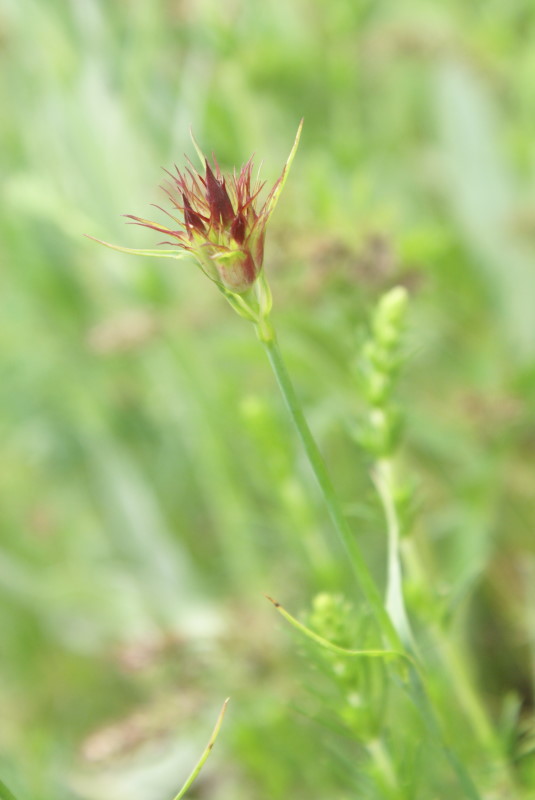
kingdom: Plantae
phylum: Tracheophyta
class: Magnoliopsida
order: Caryophyllales
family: Caryophyllaceae
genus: Dianthus
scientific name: Dianthus capitatus
